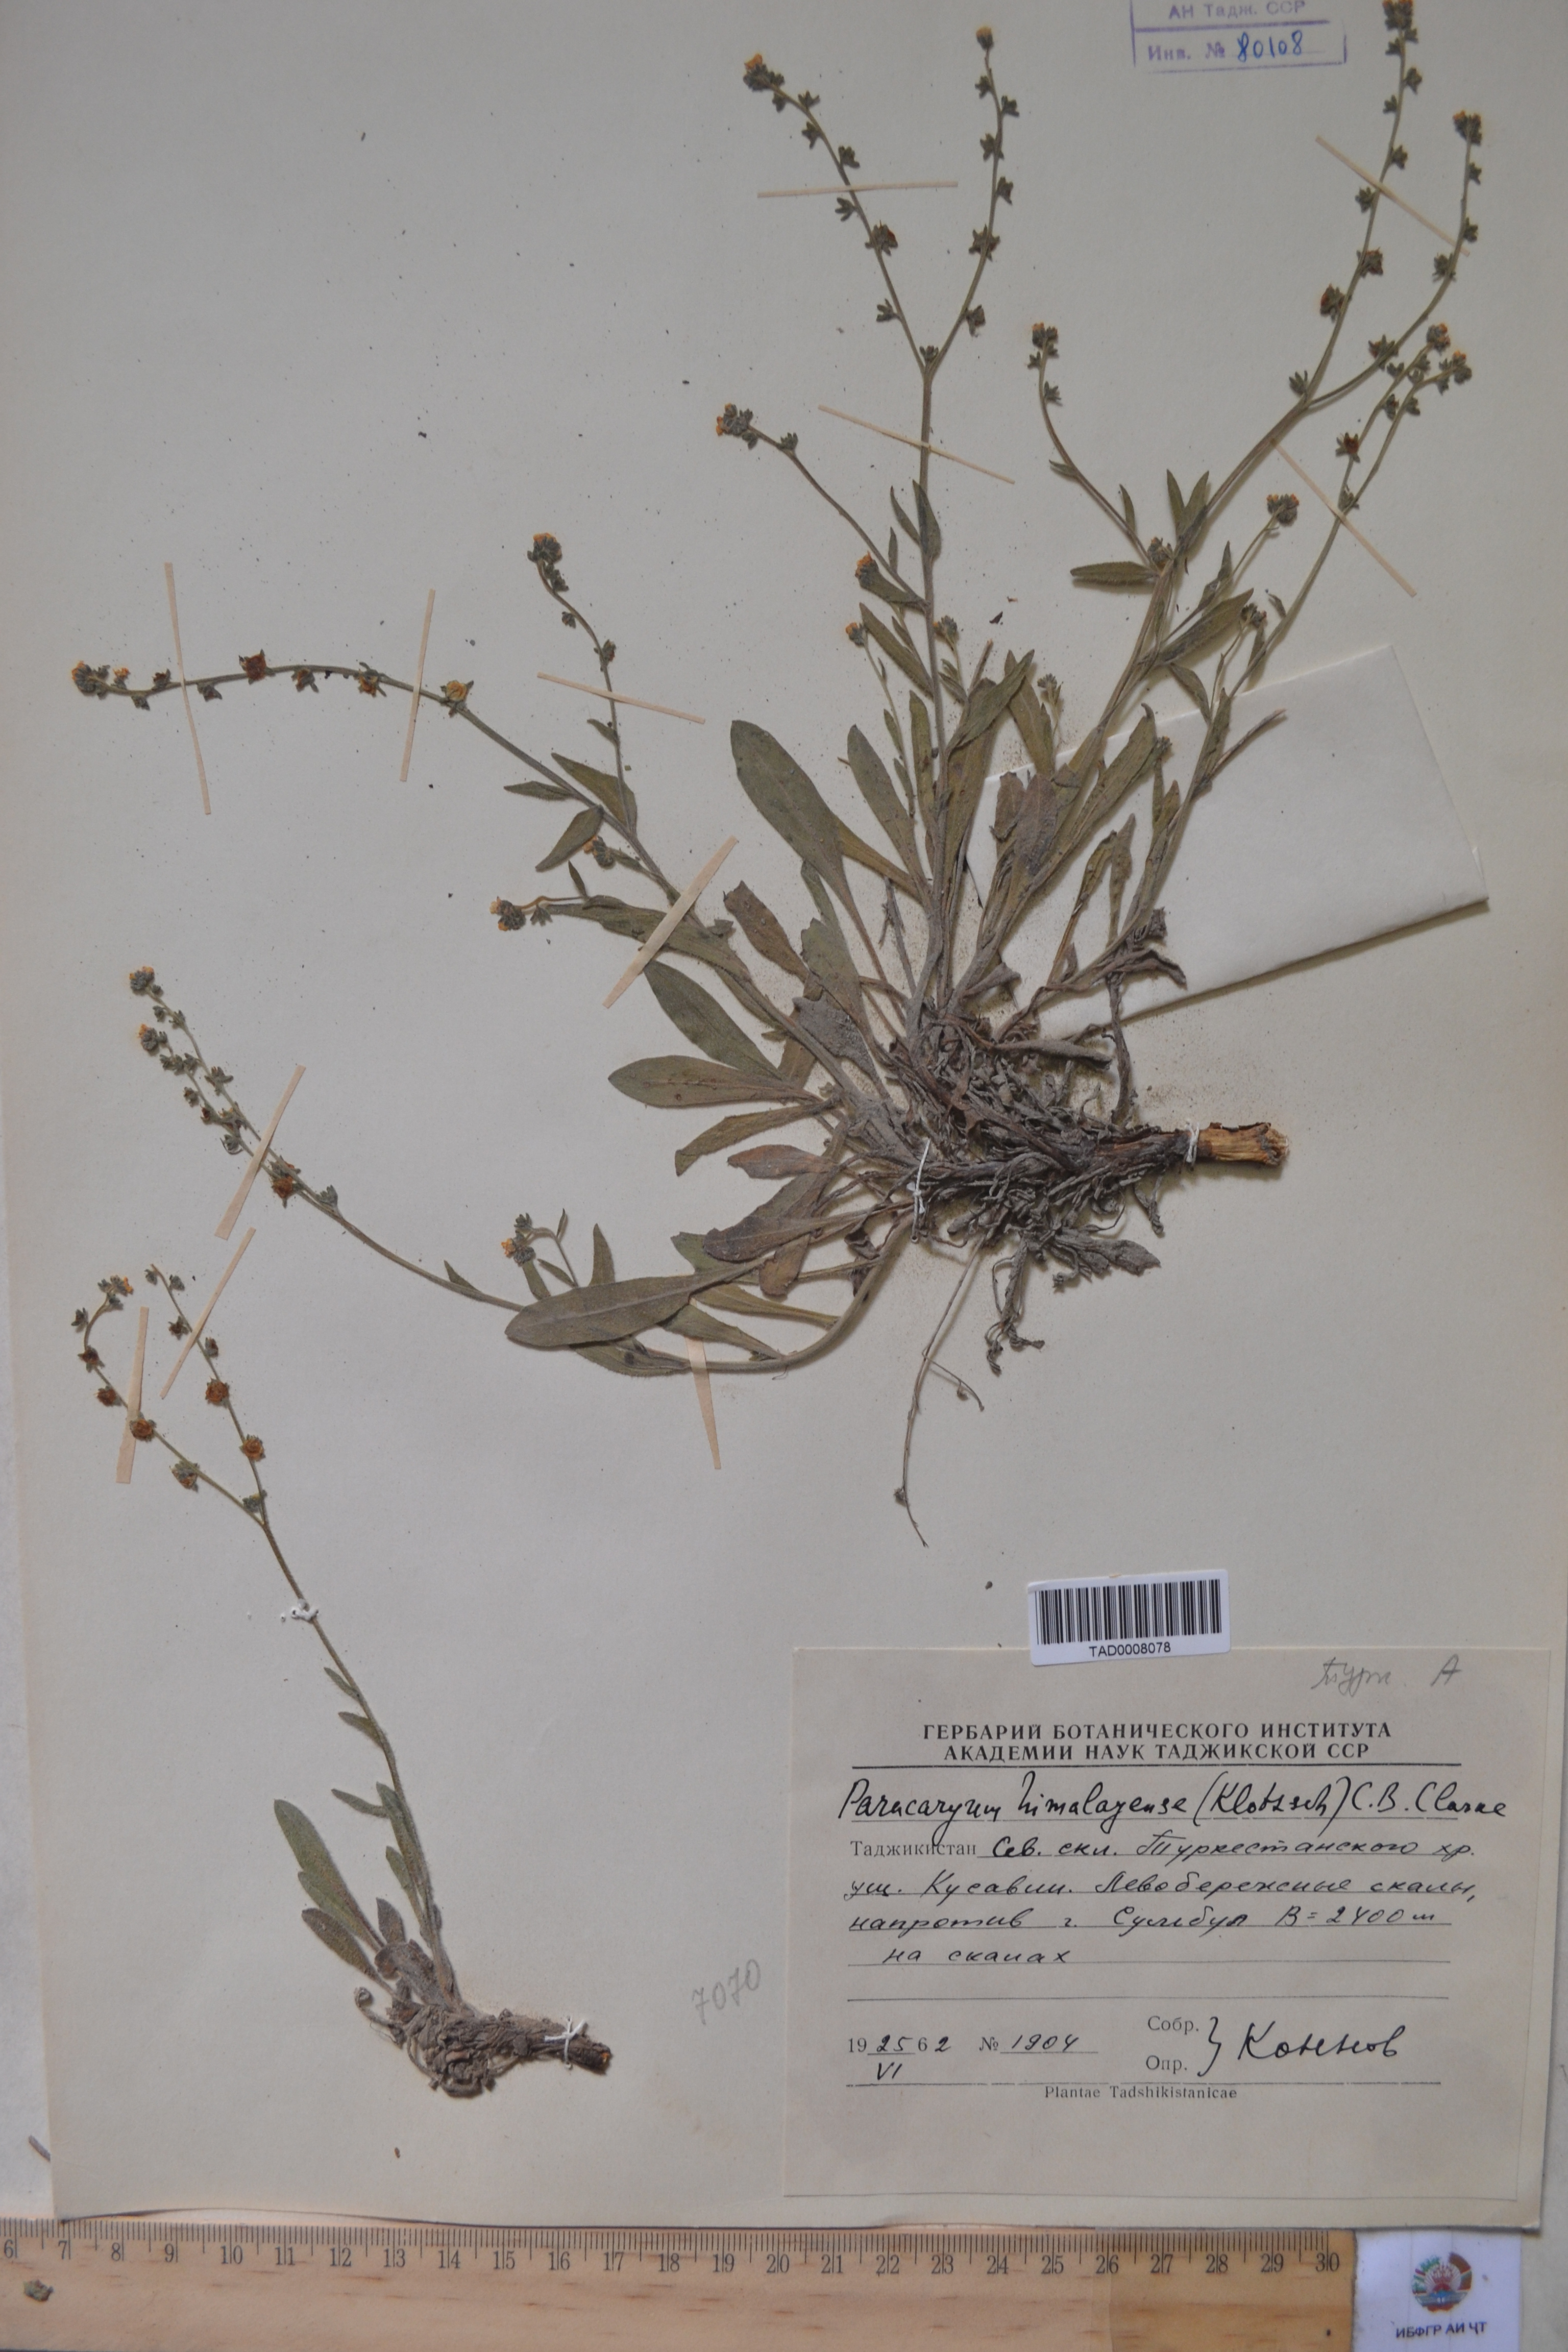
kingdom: Plantae
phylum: Tracheophyta
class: Magnoliopsida
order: Boraginales
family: Boraginaceae
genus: Paracaryum
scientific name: Paracaryum himalayense
